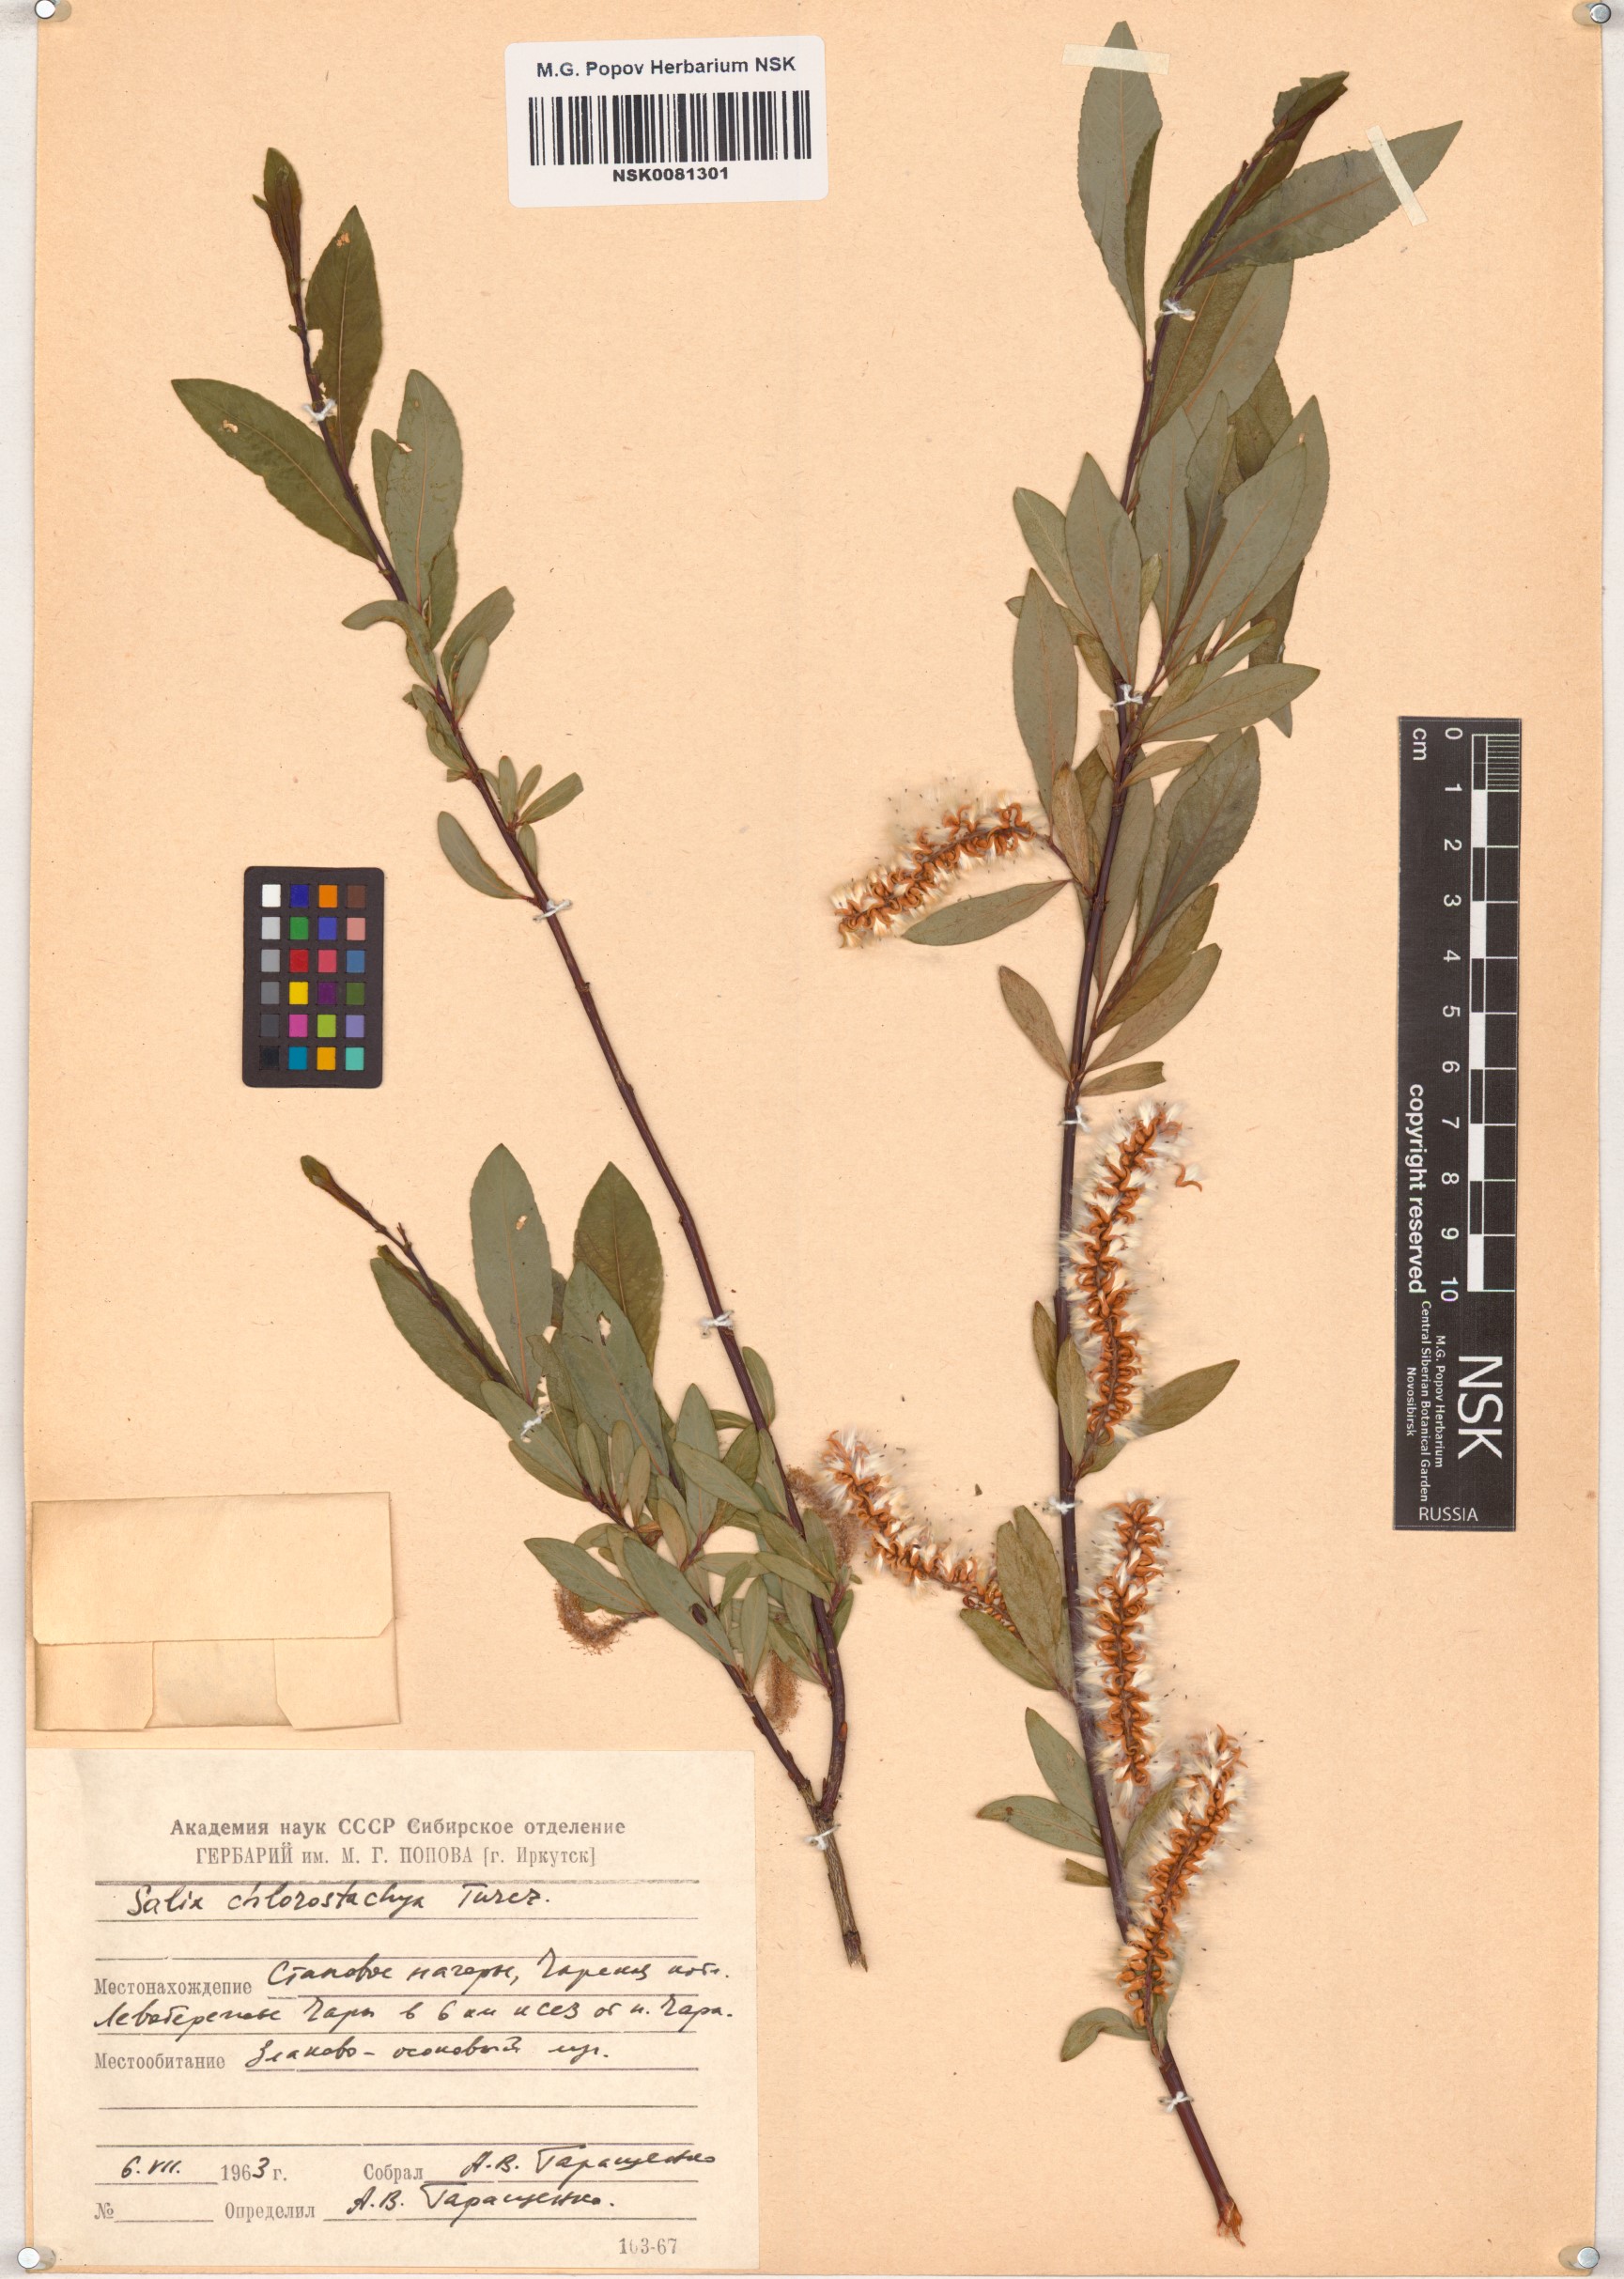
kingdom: Plantae
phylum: Tracheophyta
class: Magnoliopsida
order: Malpighiales
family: Salicaceae
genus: Salix
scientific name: Salix rhamnifolia
